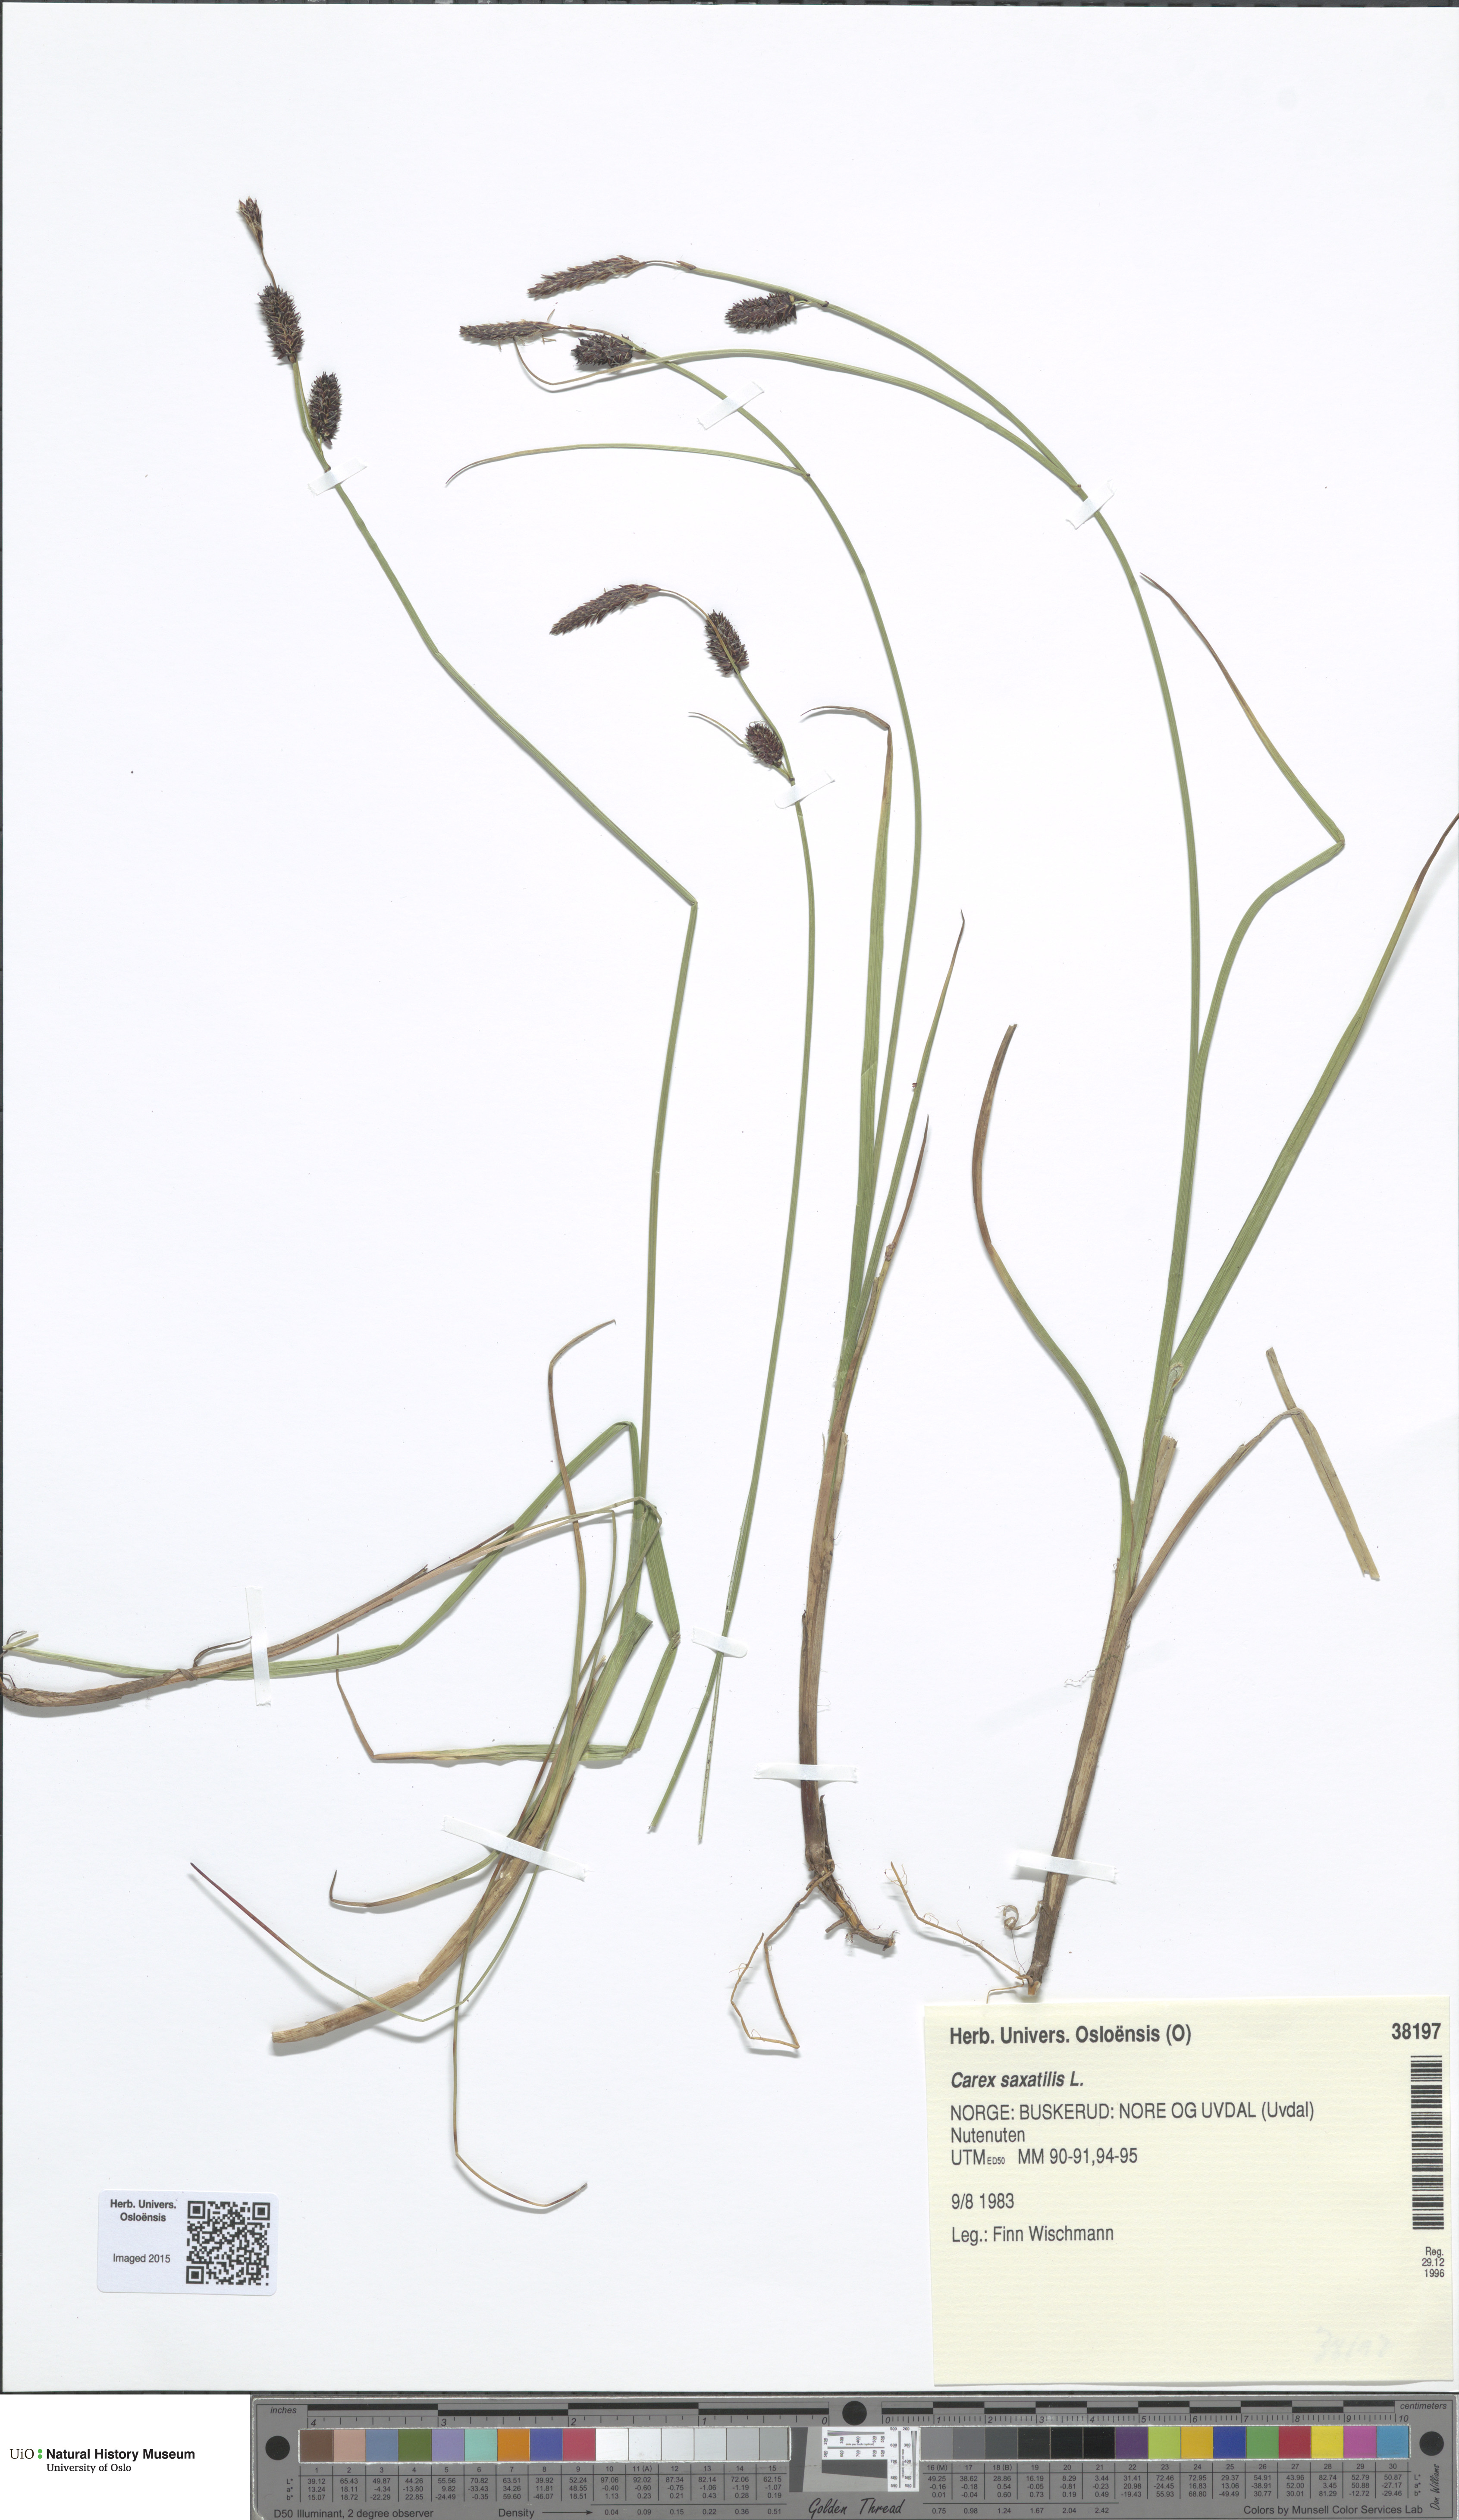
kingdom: Plantae
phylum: Tracheophyta
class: Liliopsida
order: Poales
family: Cyperaceae
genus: Carex
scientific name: Carex saxatilis
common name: Russet sedge
